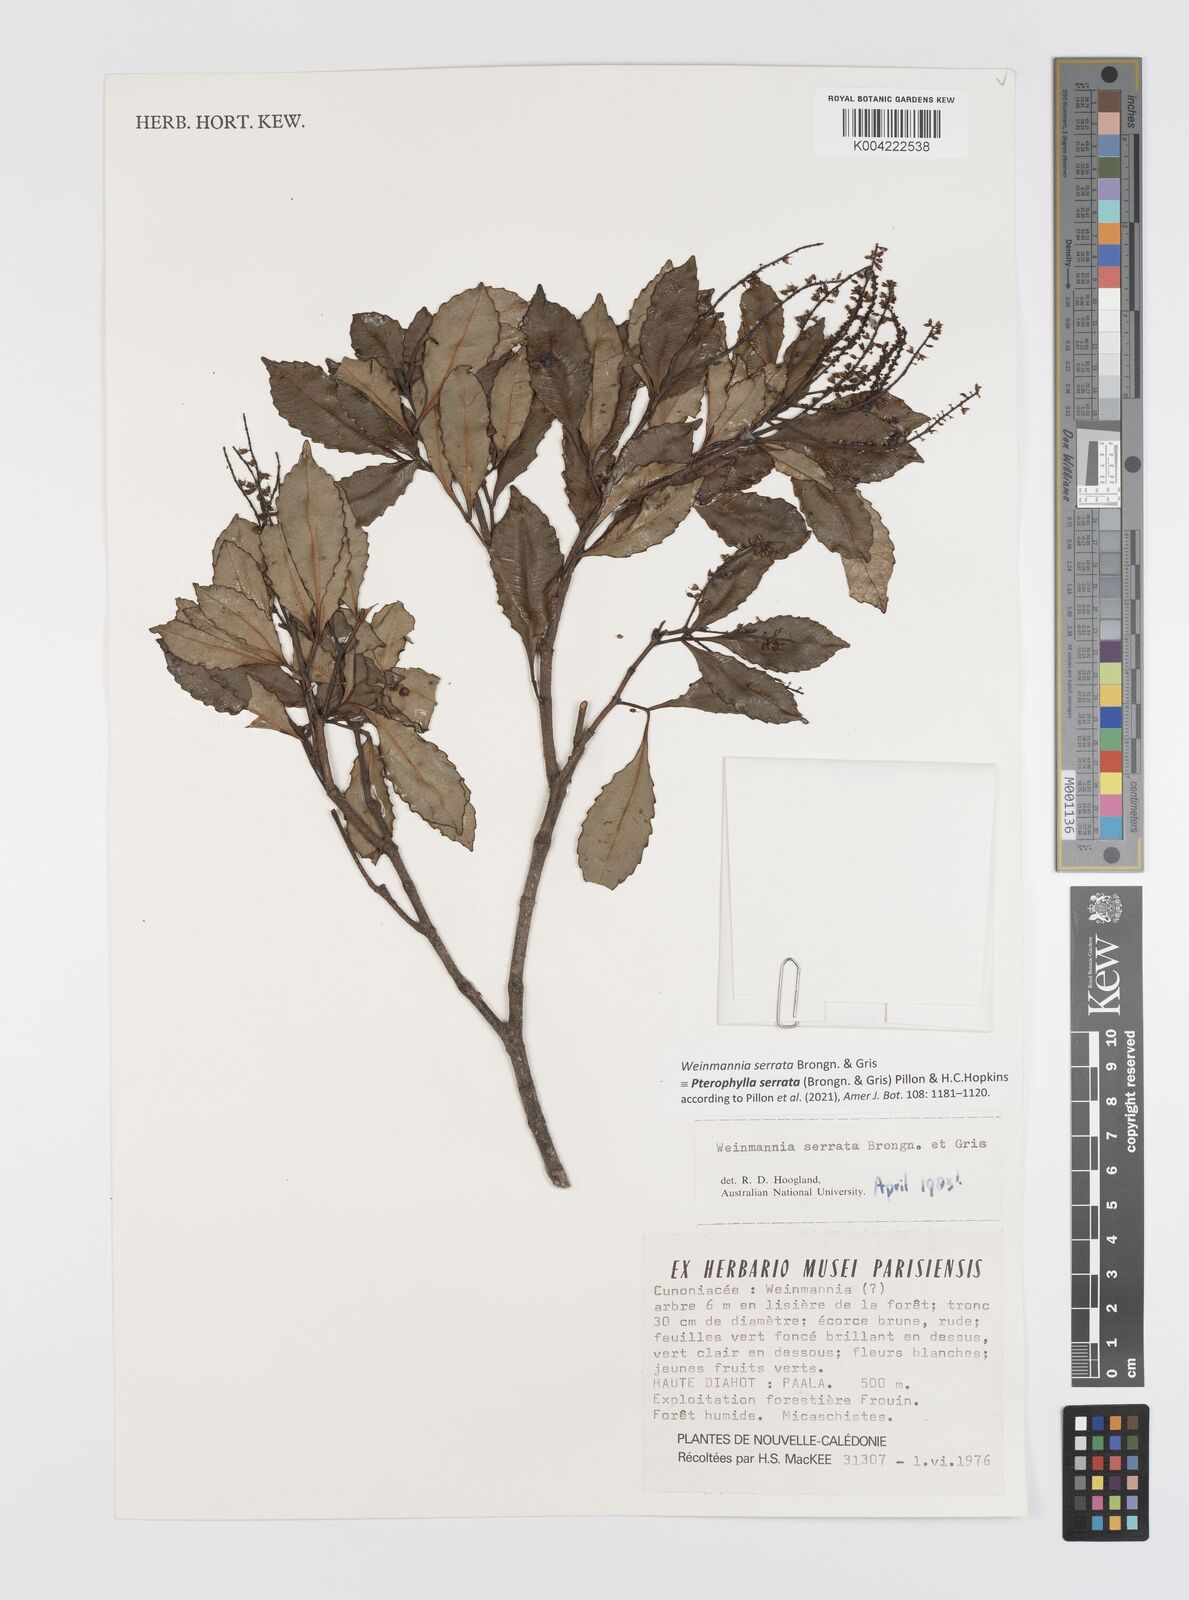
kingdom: Plantae
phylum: Tracheophyta
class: Magnoliopsida
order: Oxalidales
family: Cunoniaceae
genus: Pterophylla
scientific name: Pterophylla serrata
